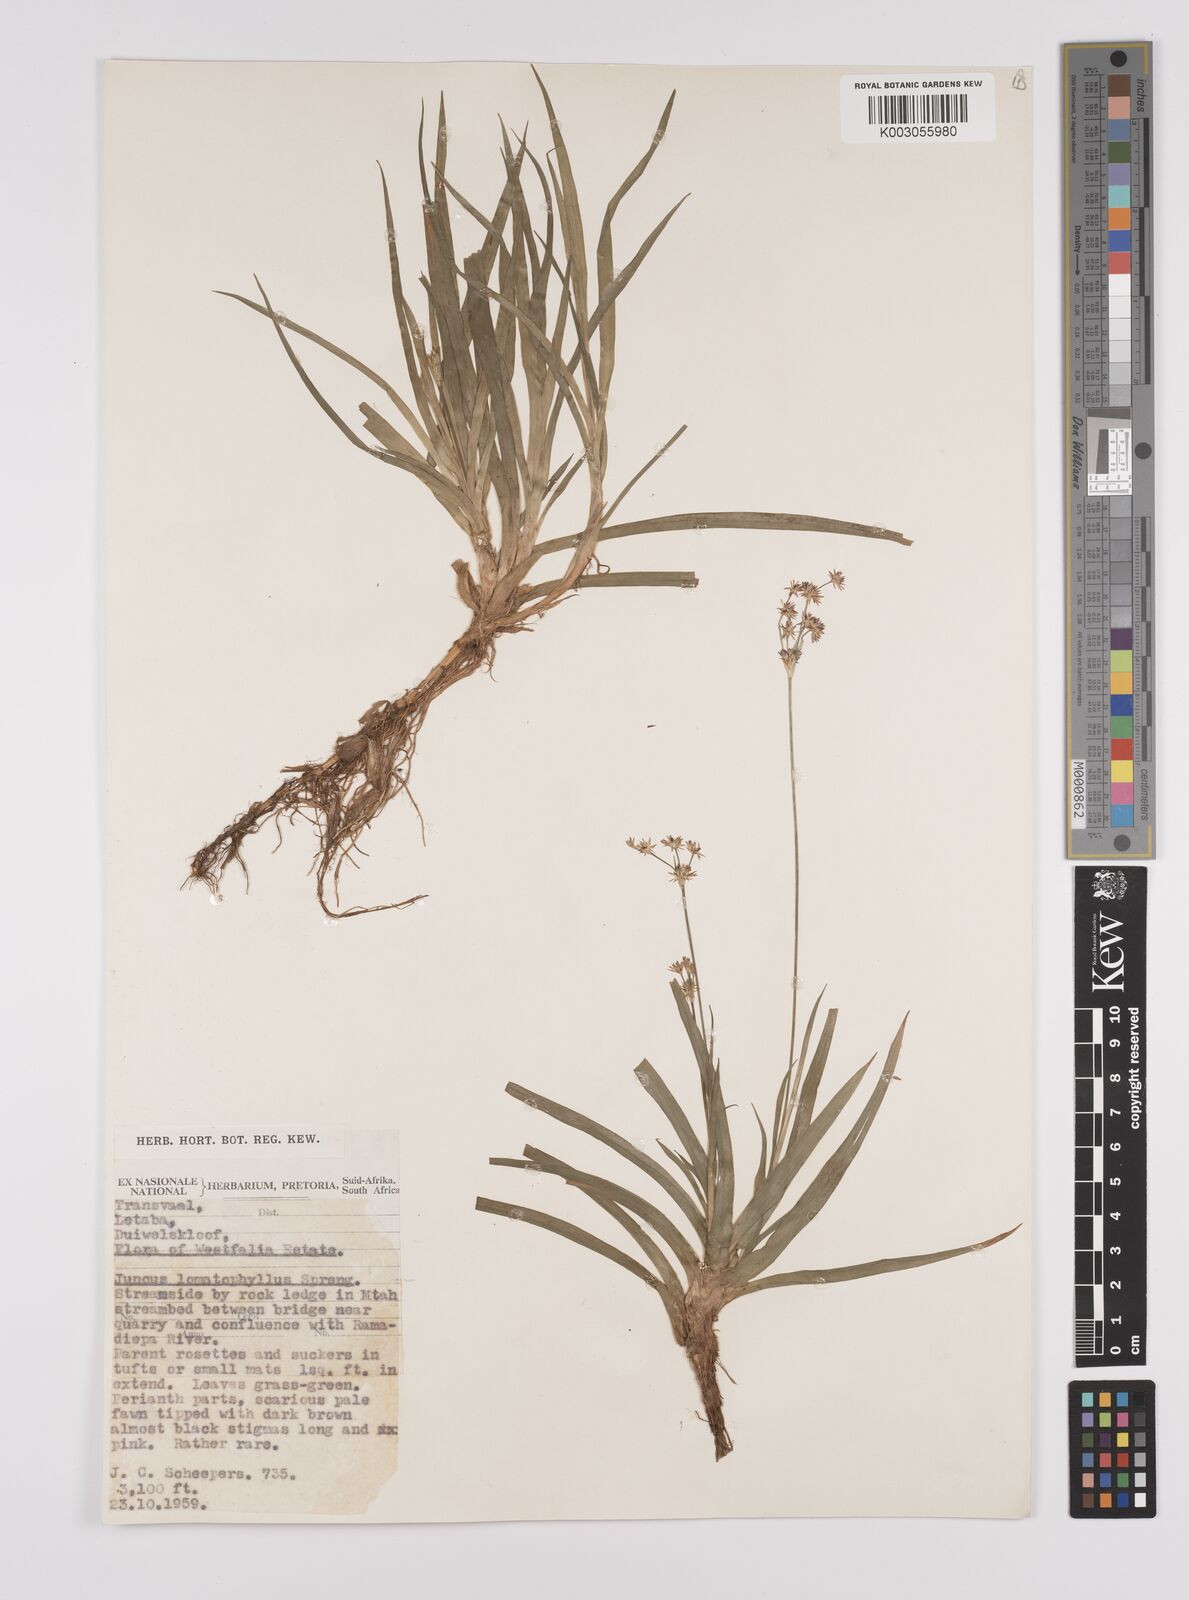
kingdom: Plantae
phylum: Tracheophyta
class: Liliopsida
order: Poales
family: Juncaceae
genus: Juncus
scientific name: Juncus lomatophyllus
